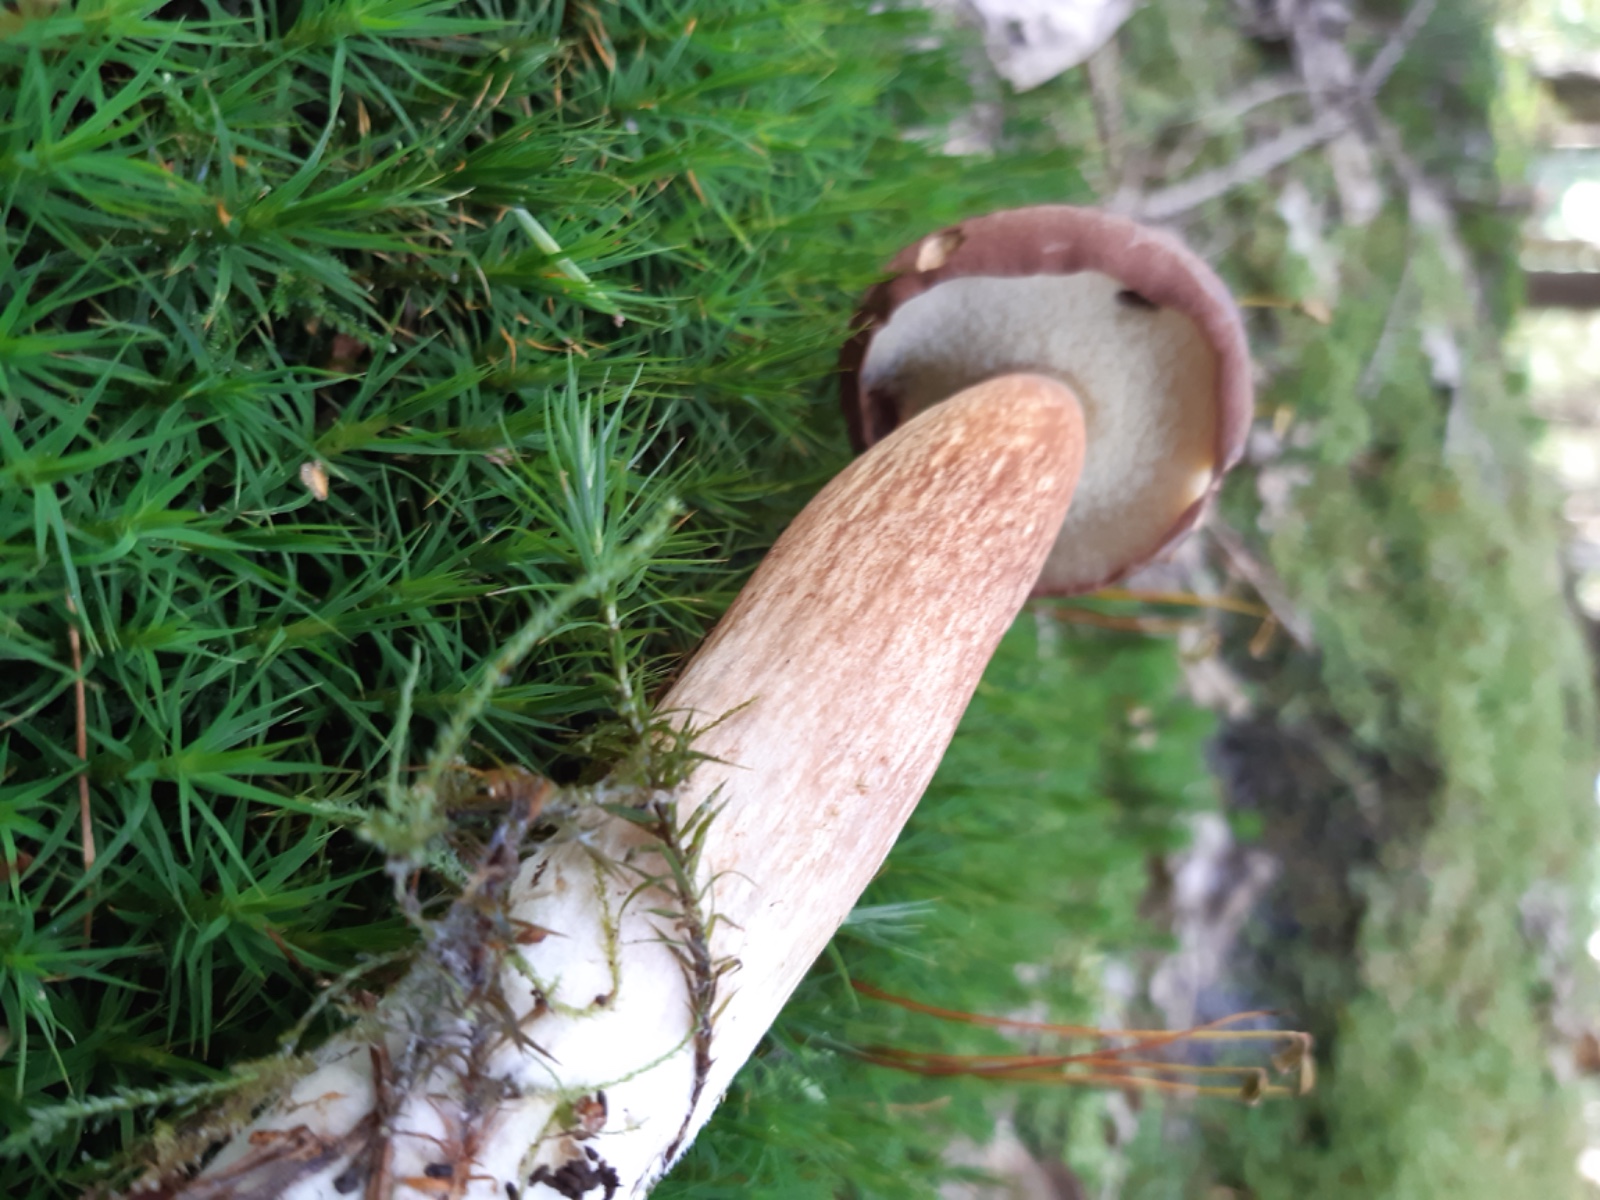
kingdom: Fungi
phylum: Basidiomycota
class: Agaricomycetes
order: Boletales
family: Boletaceae
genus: Imleria
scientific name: Imleria badia
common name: brunstokket rørhat
